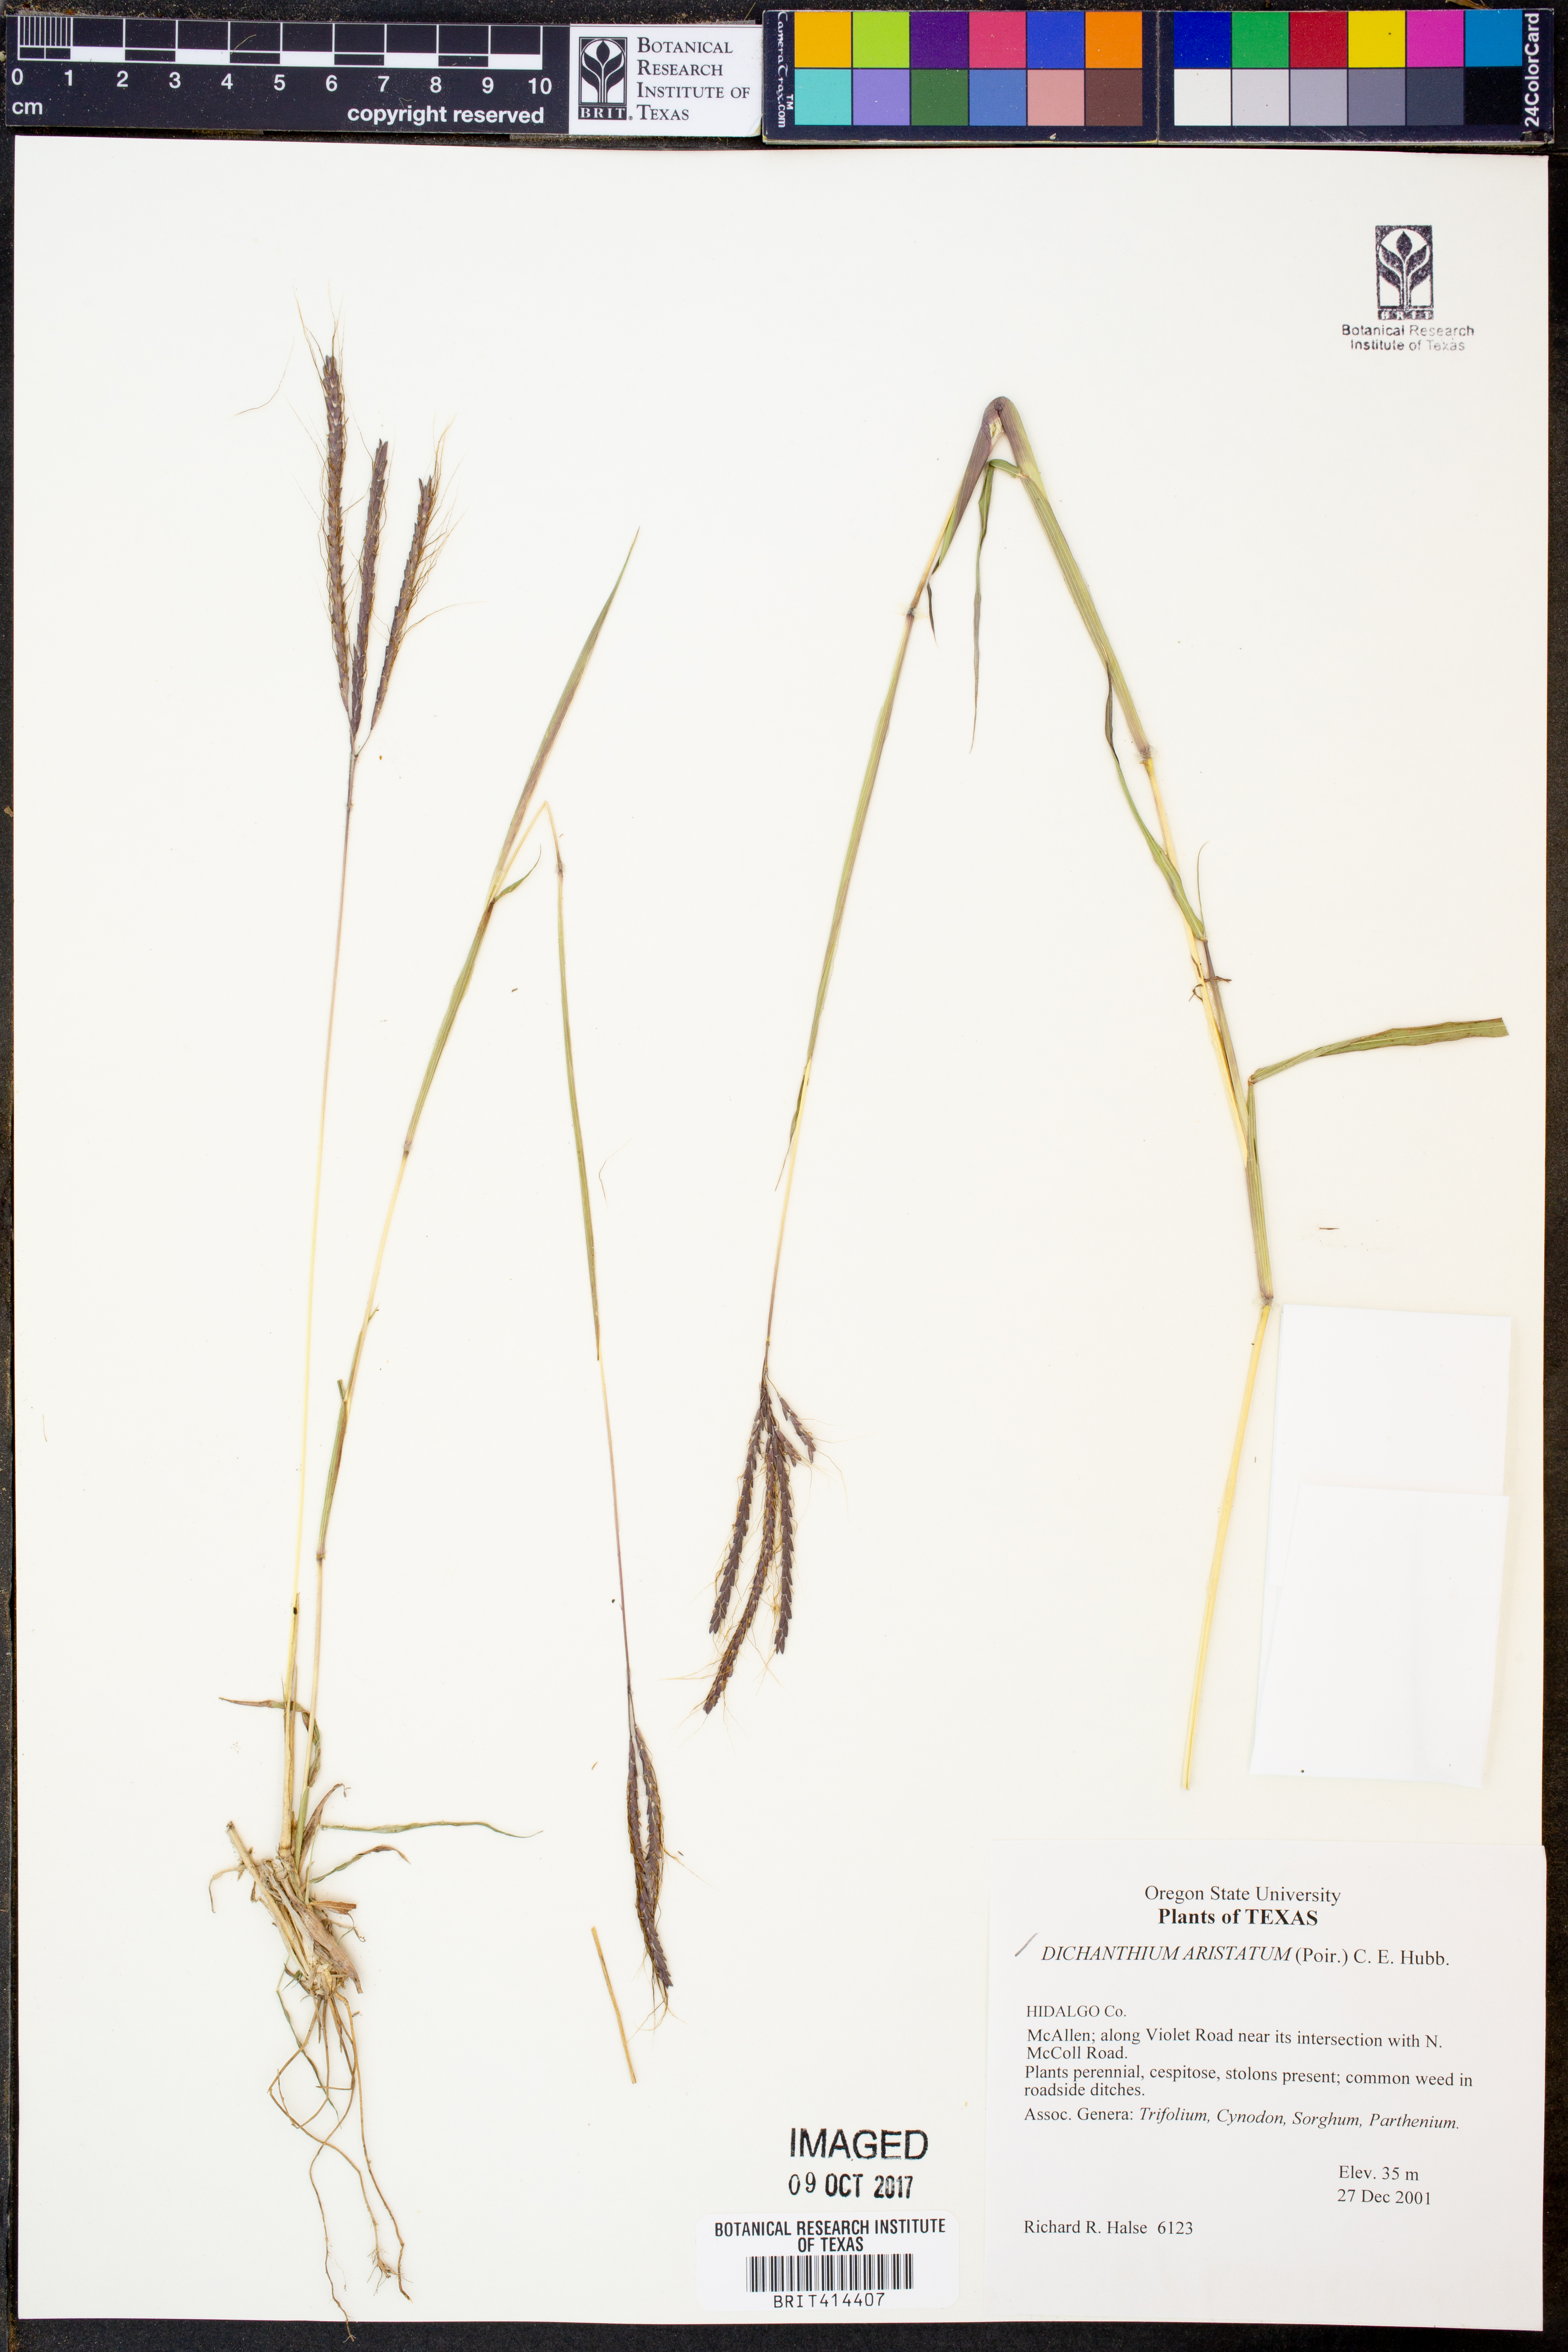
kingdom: Plantae
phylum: Tracheophyta
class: Liliopsida
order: Poales
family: Poaceae
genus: Dichanthium
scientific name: Dichanthium aristatum
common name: Angleton bluestem
